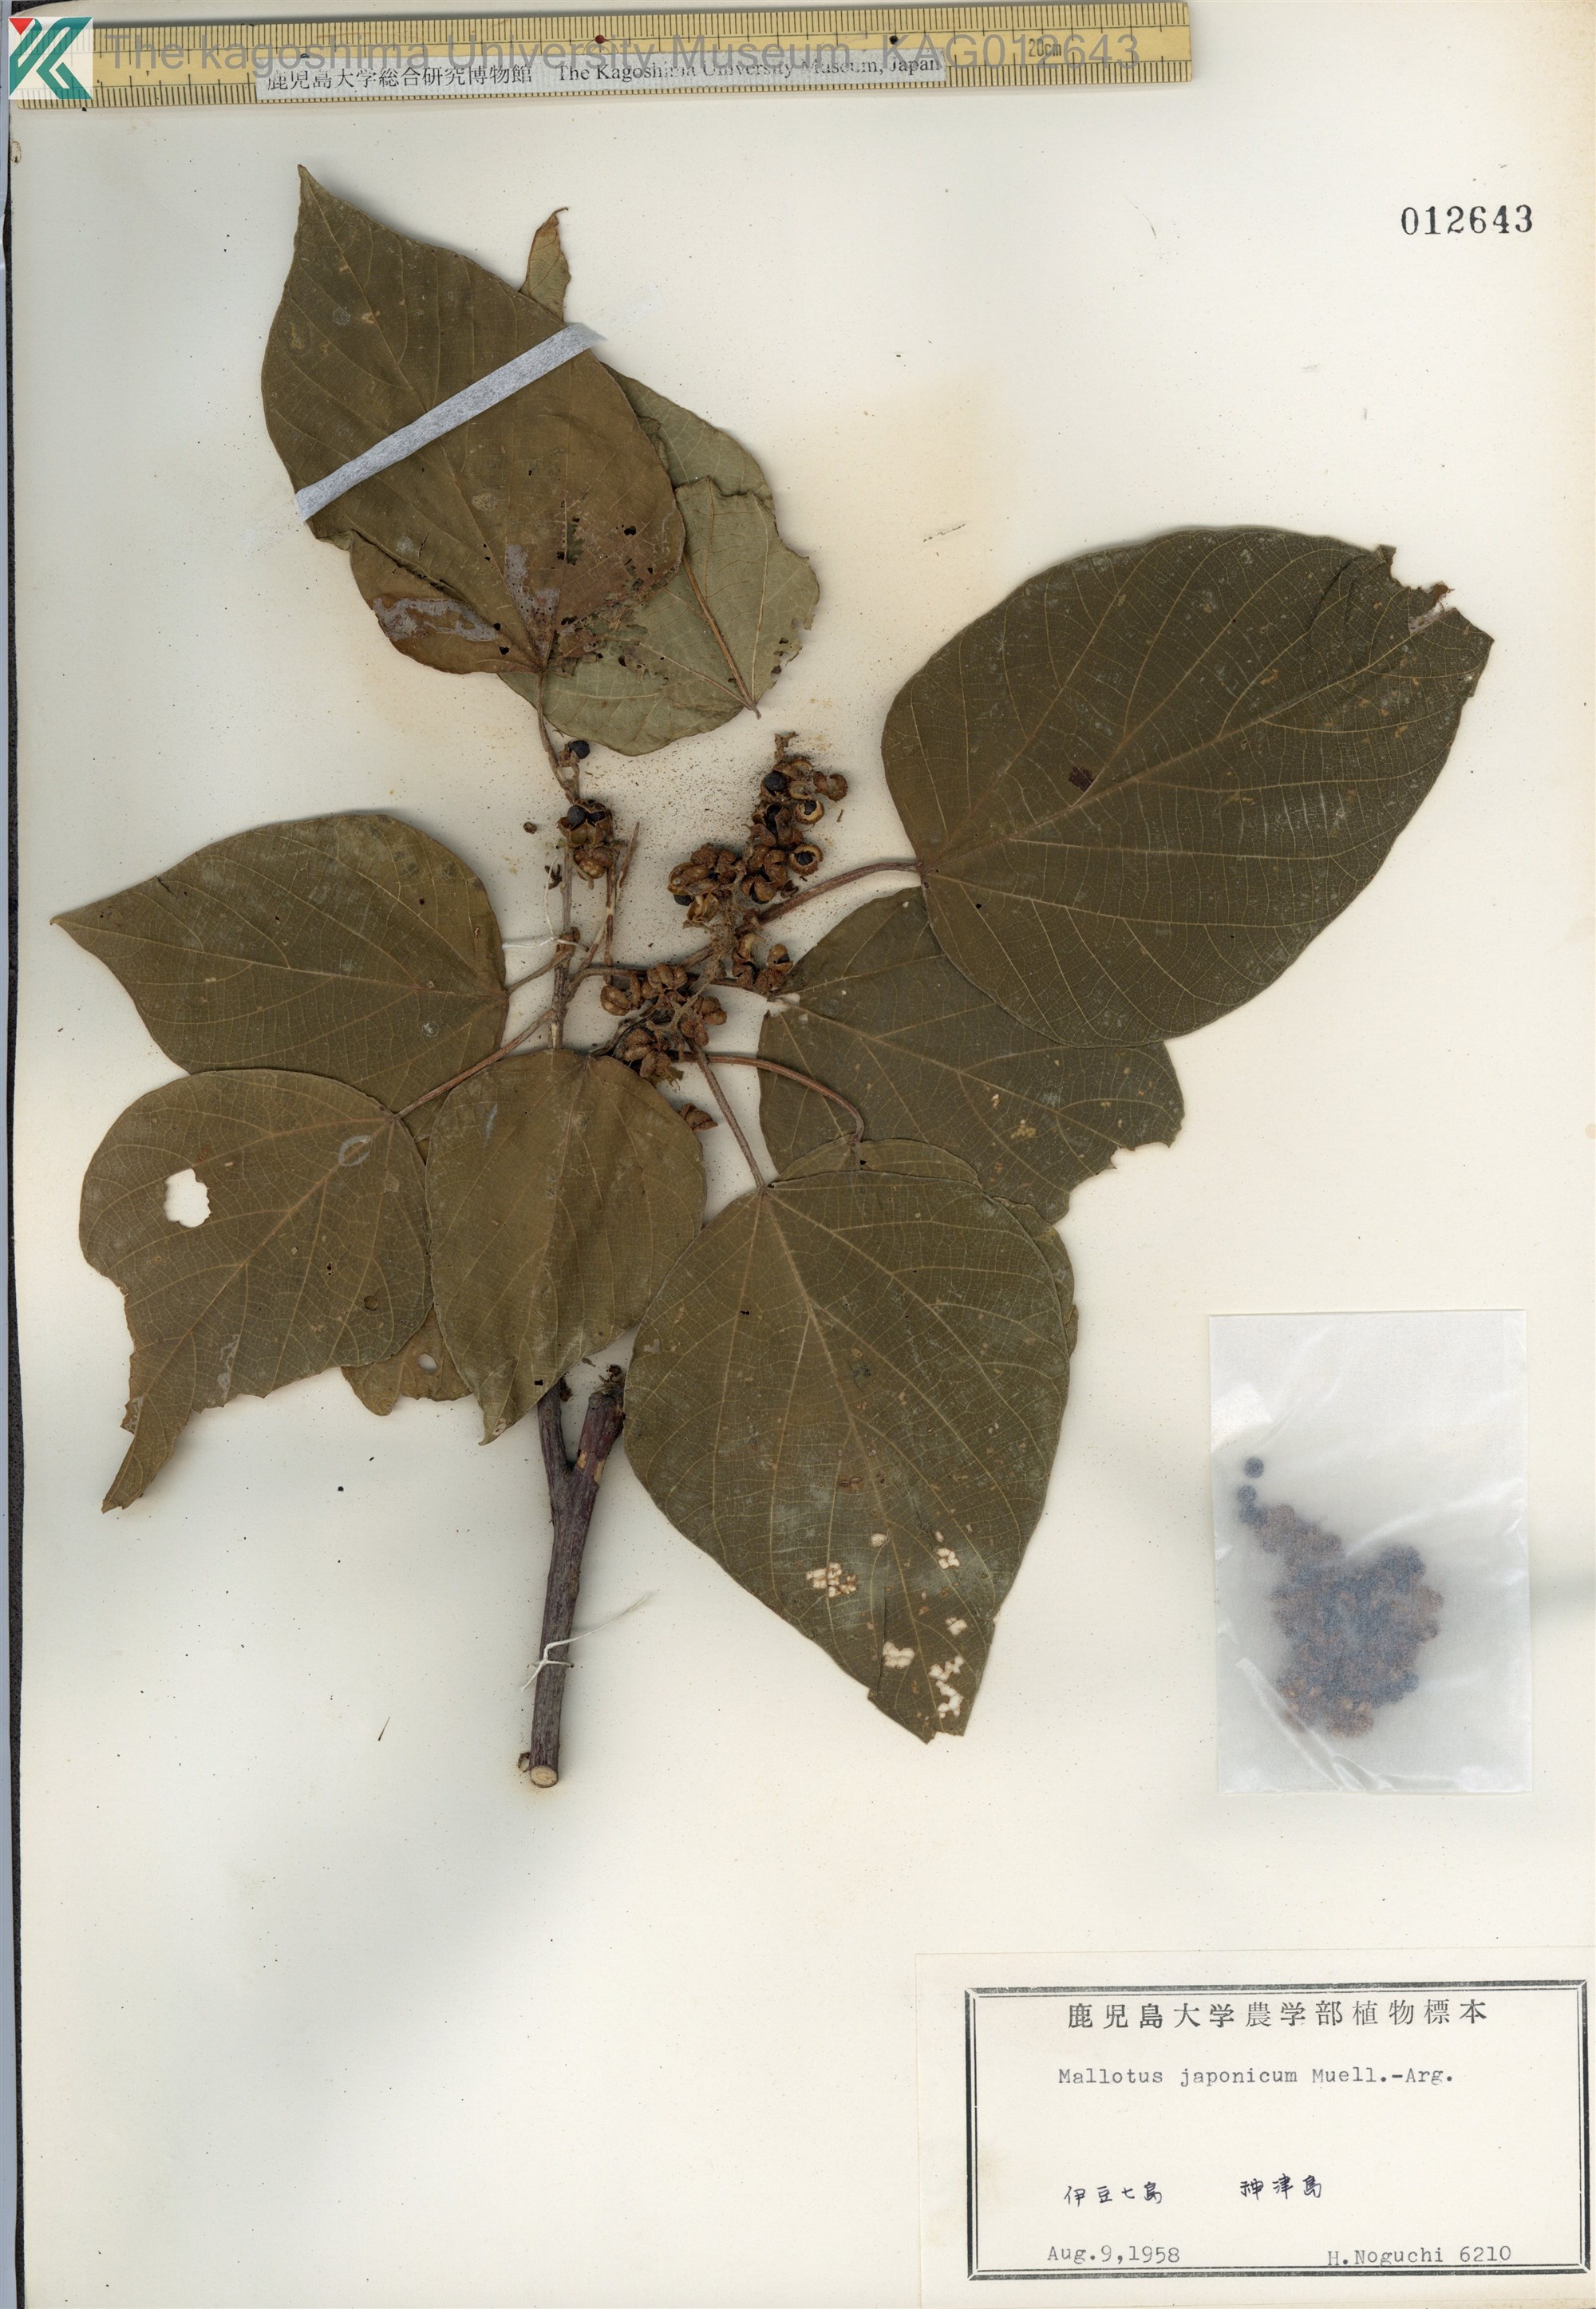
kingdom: Plantae
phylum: Tracheophyta
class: Magnoliopsida
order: Malpighiales
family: Euphorbiaceae
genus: Mallotus
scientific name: Mallotus japonicus
